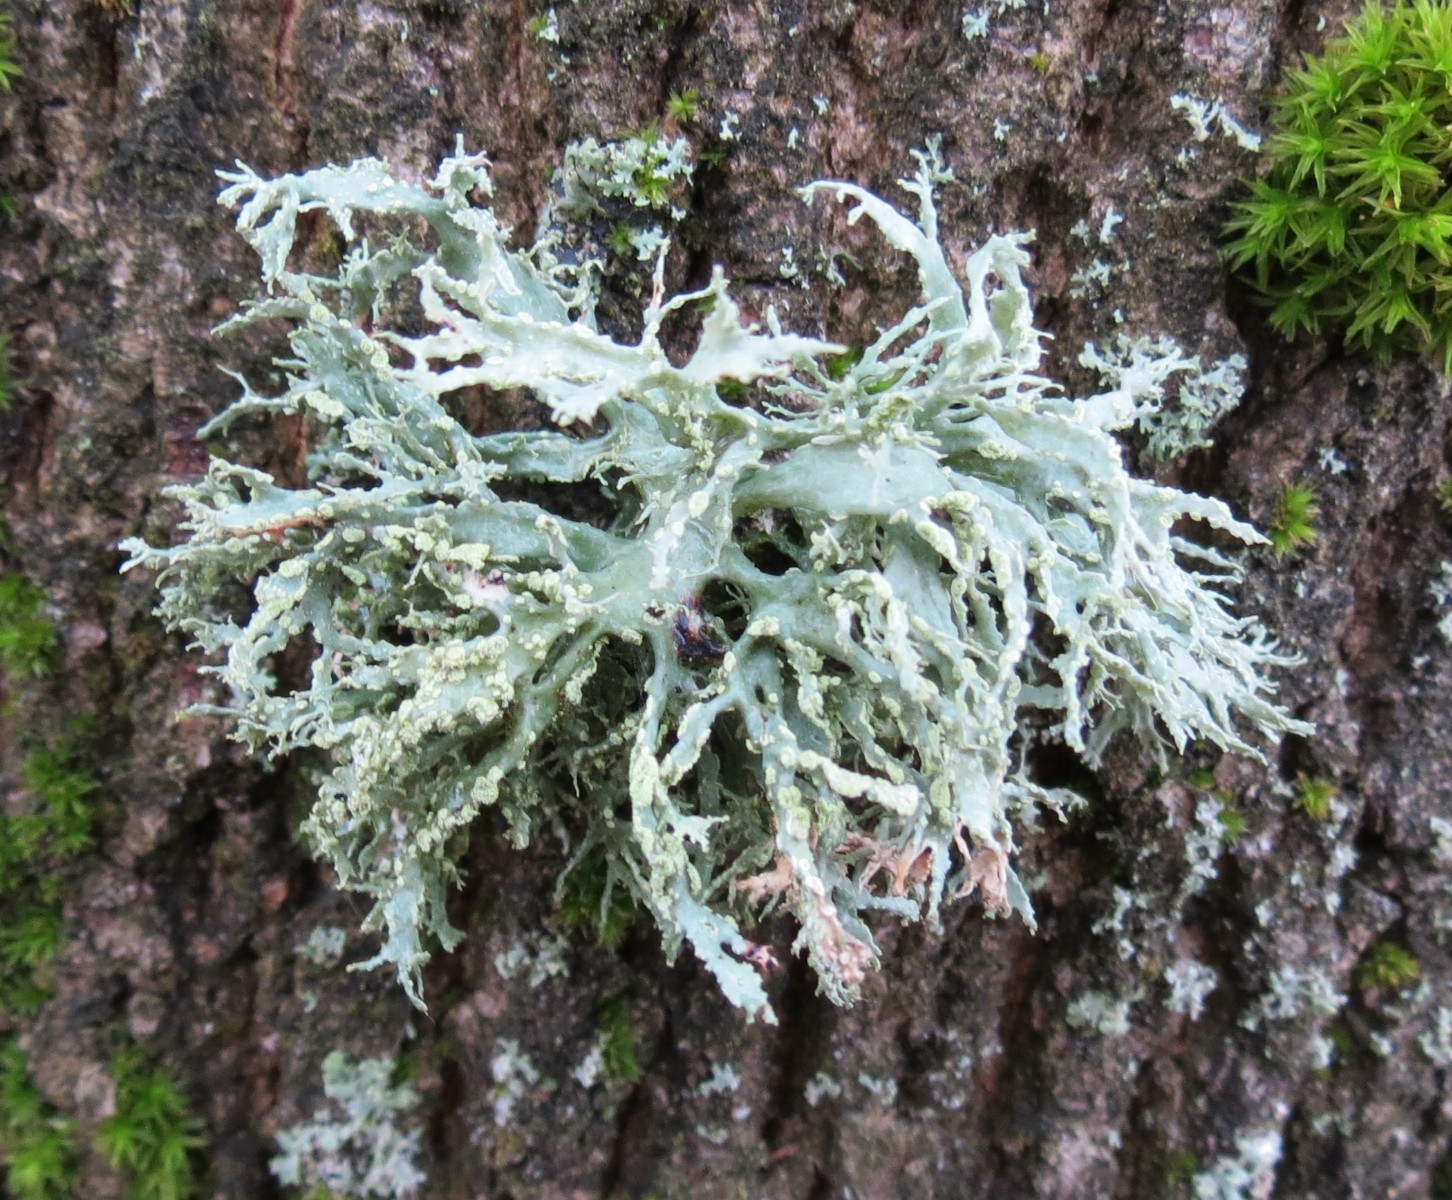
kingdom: Fungi
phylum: Ascomycota
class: Lecanoromycetes
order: Lecanorales
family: Ramalinaceae
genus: Ramalina
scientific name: Ramalina farinacea
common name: melet grenlav
